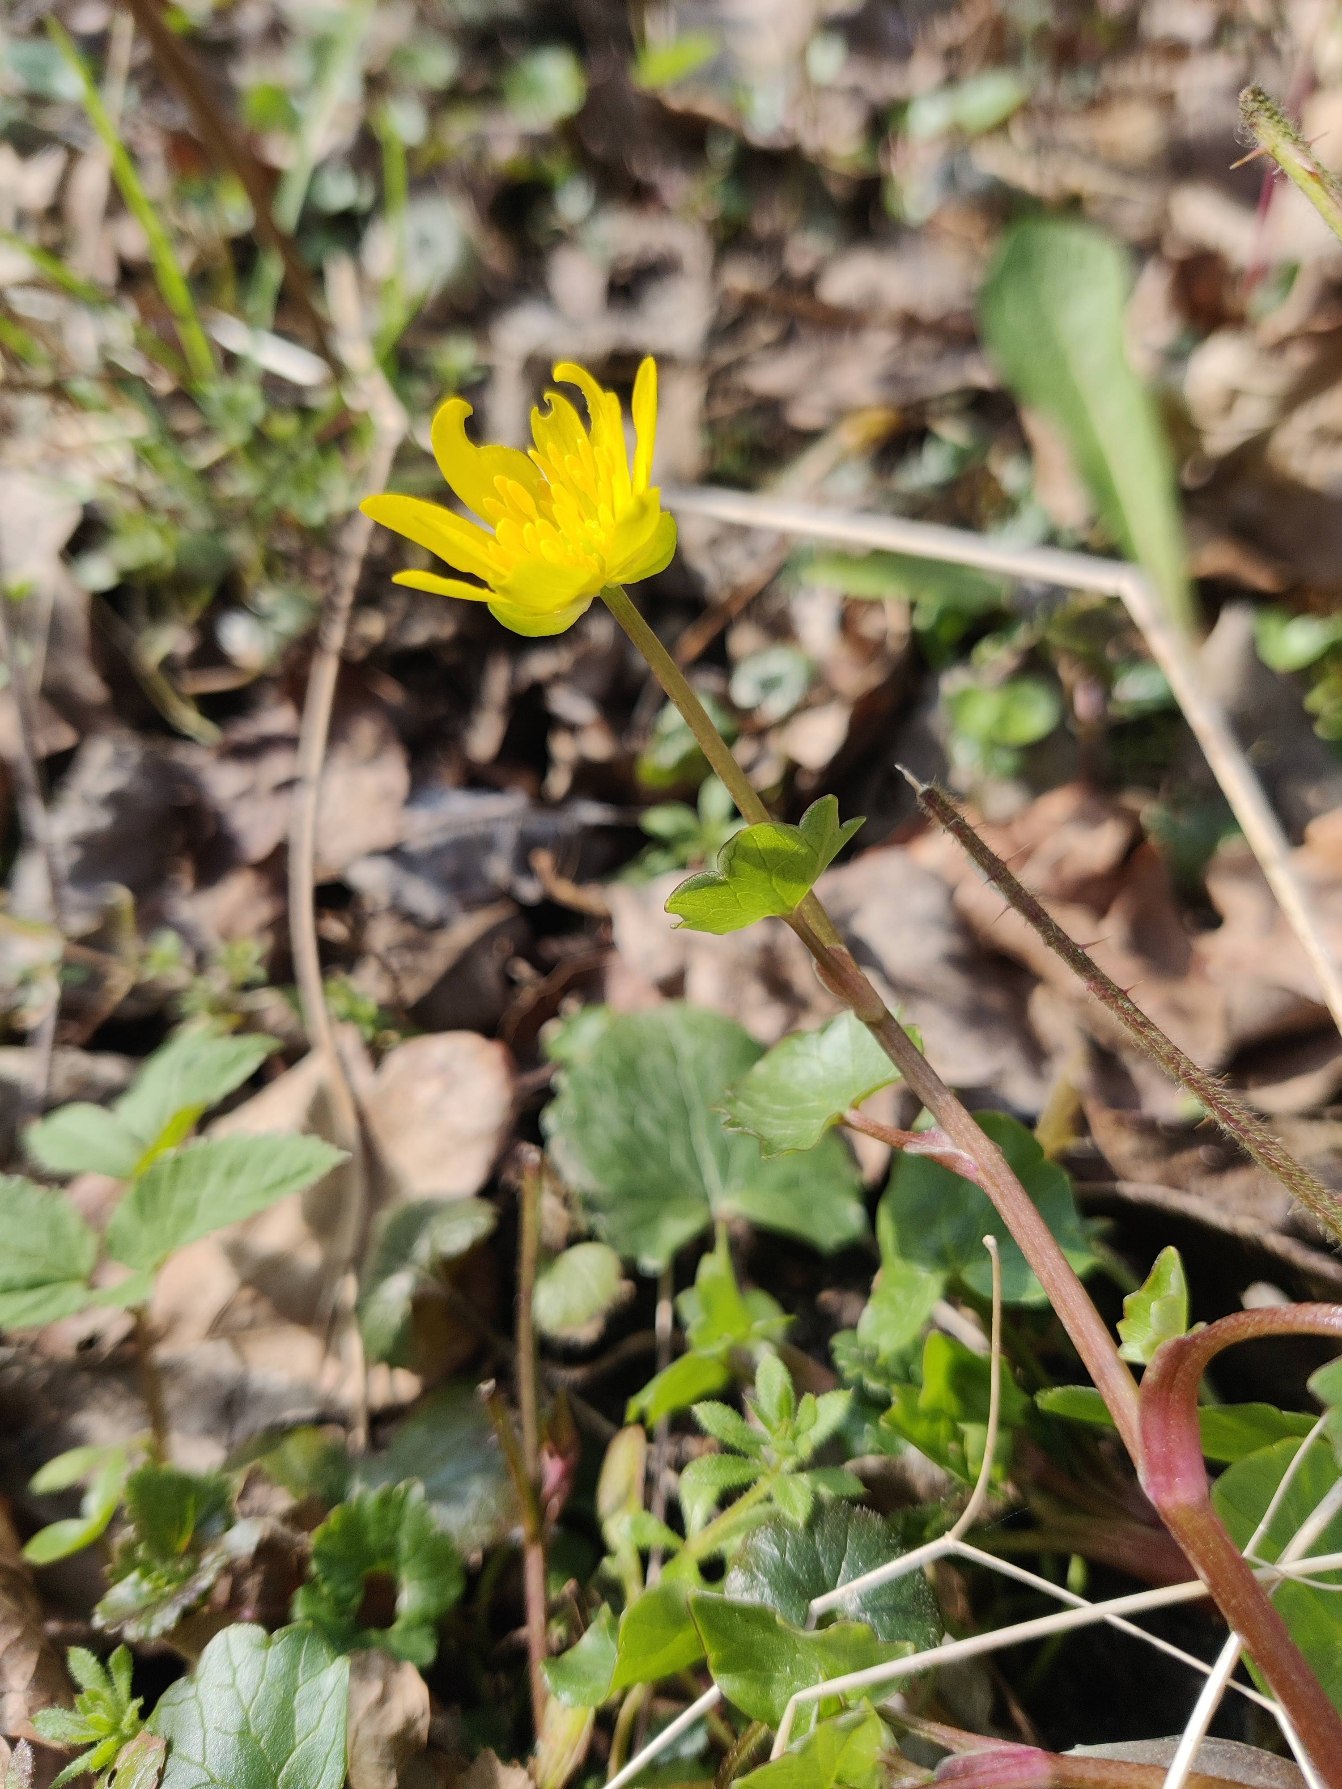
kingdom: Plantae
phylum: Tracheophyta
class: Magnoliopsida
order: Ranunculales
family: Ranunculaceae
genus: Ficaria
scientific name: Ficaria verna
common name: Vorterod
